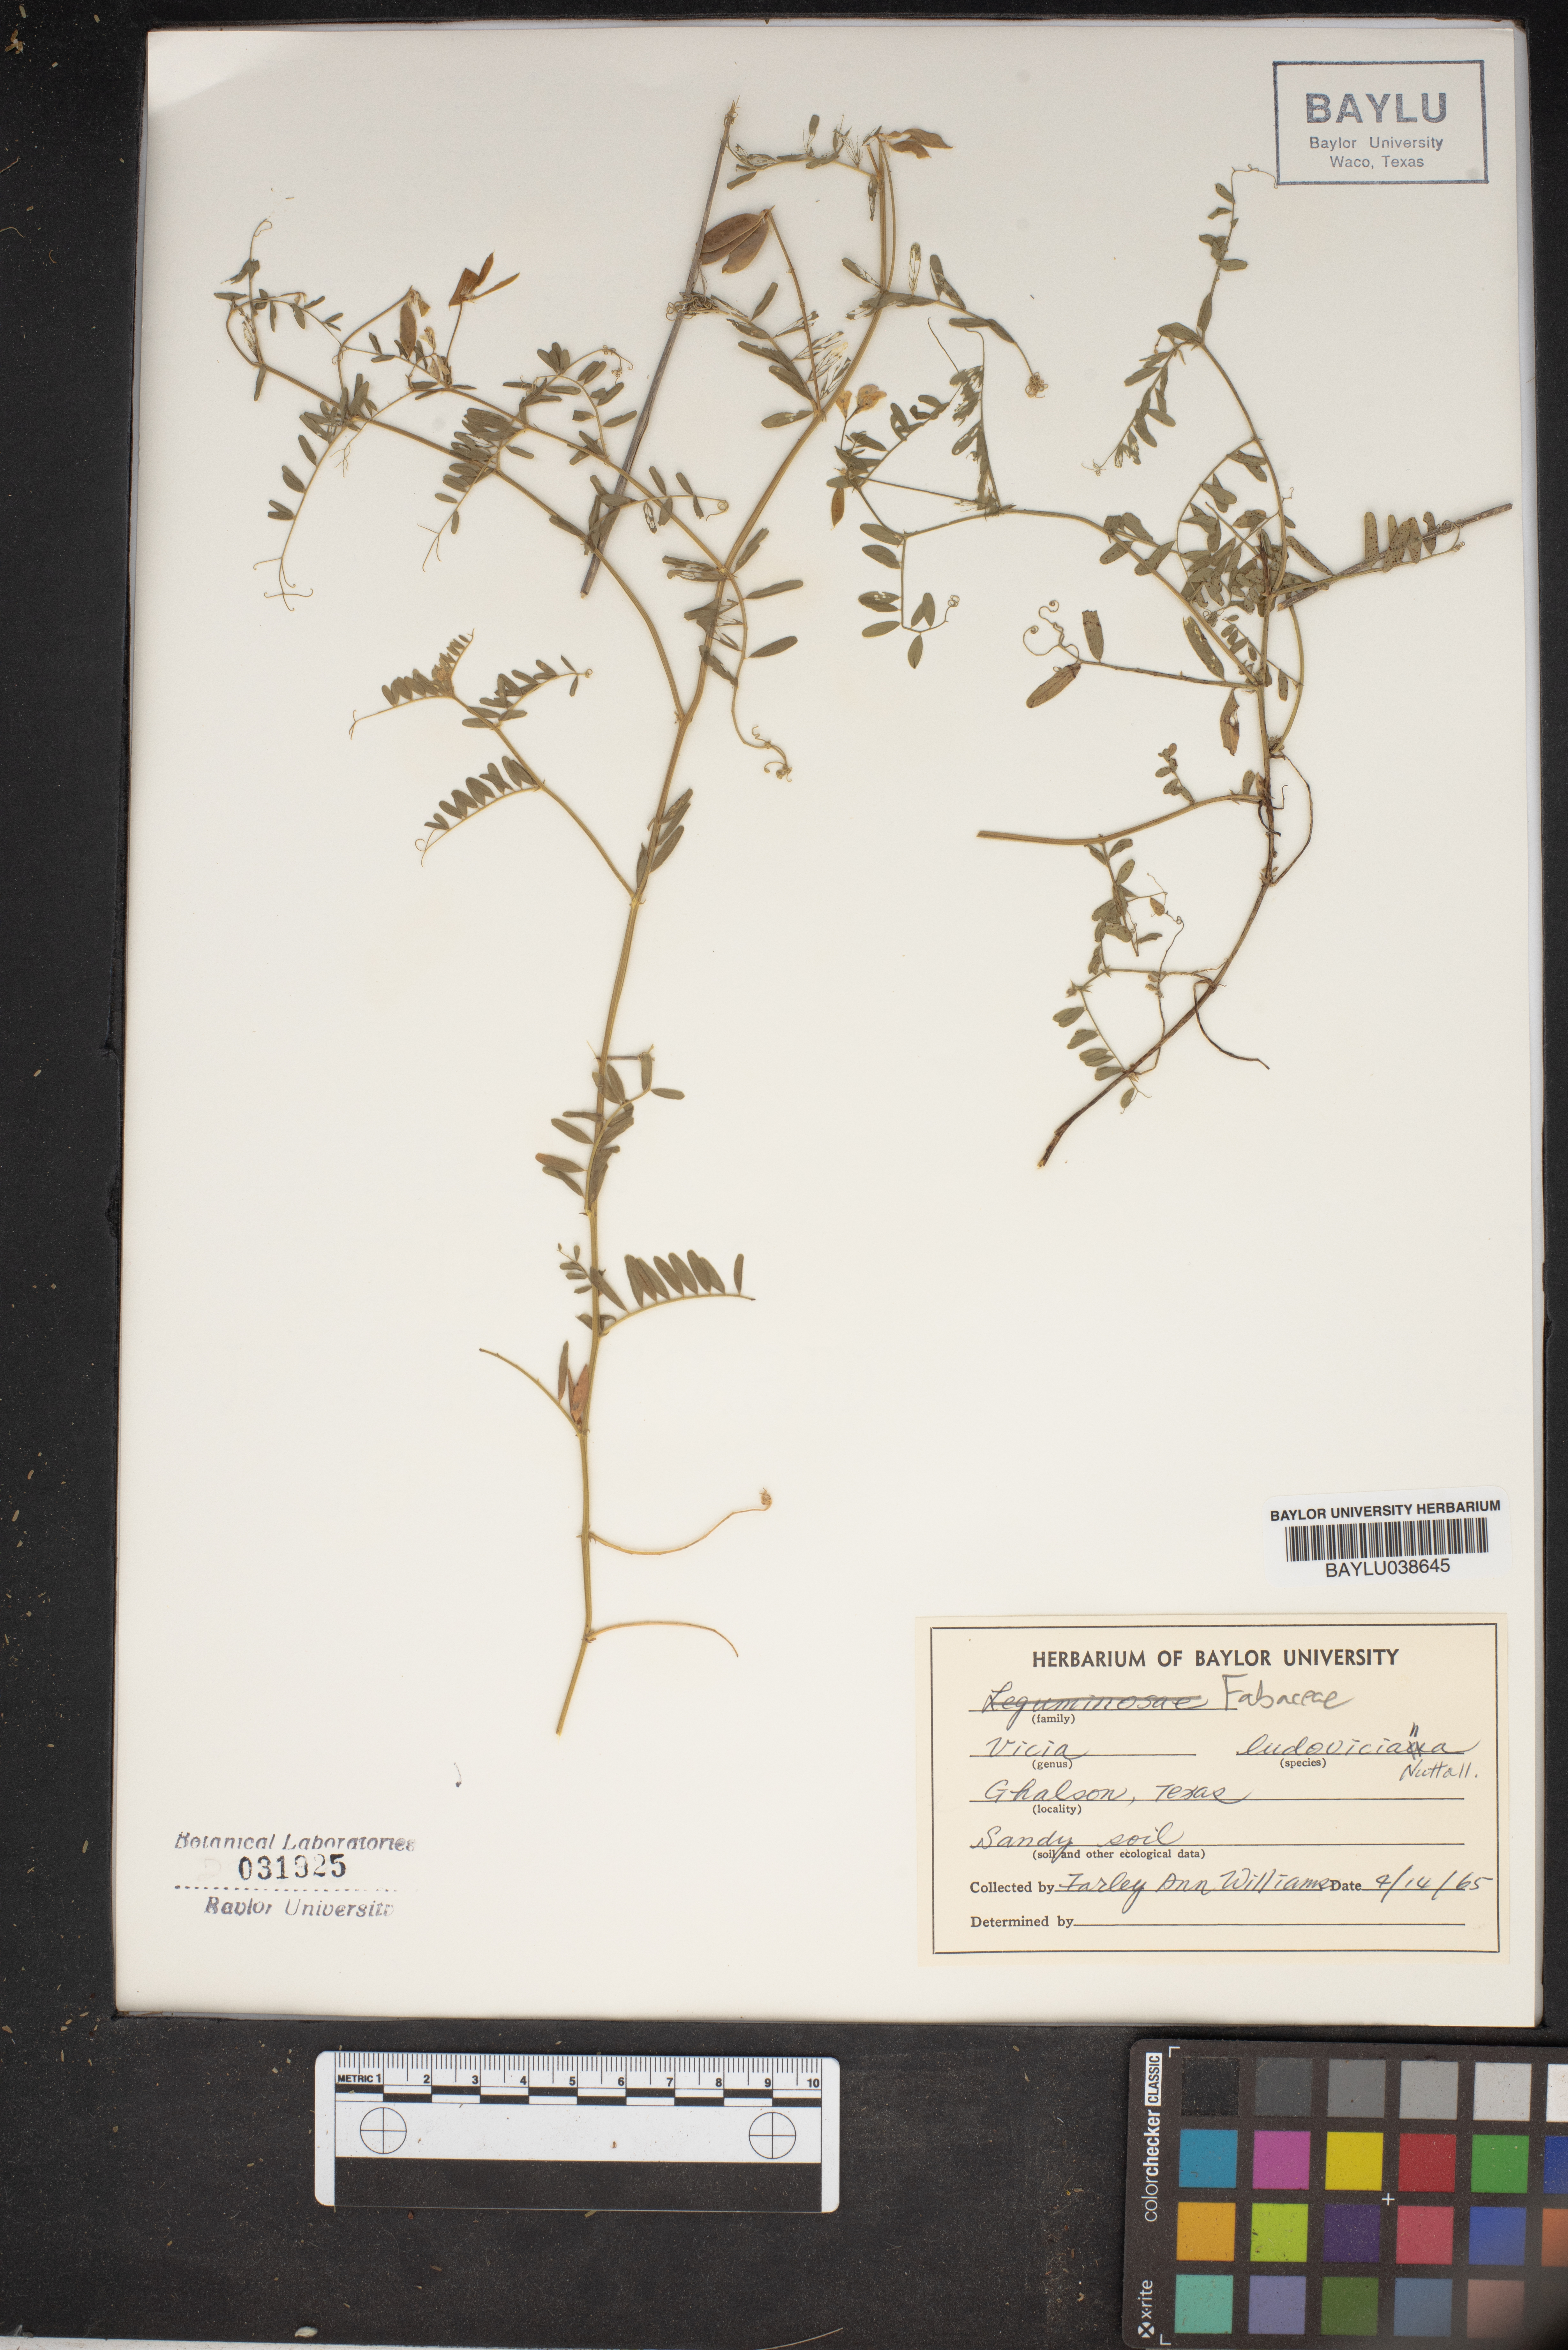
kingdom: Plantae
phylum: Tracheophyta
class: Magnoliopsida
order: Fabales
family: Fabaceae
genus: Vicia
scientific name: Vicia ludoviciana
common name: Louisiana vetch
